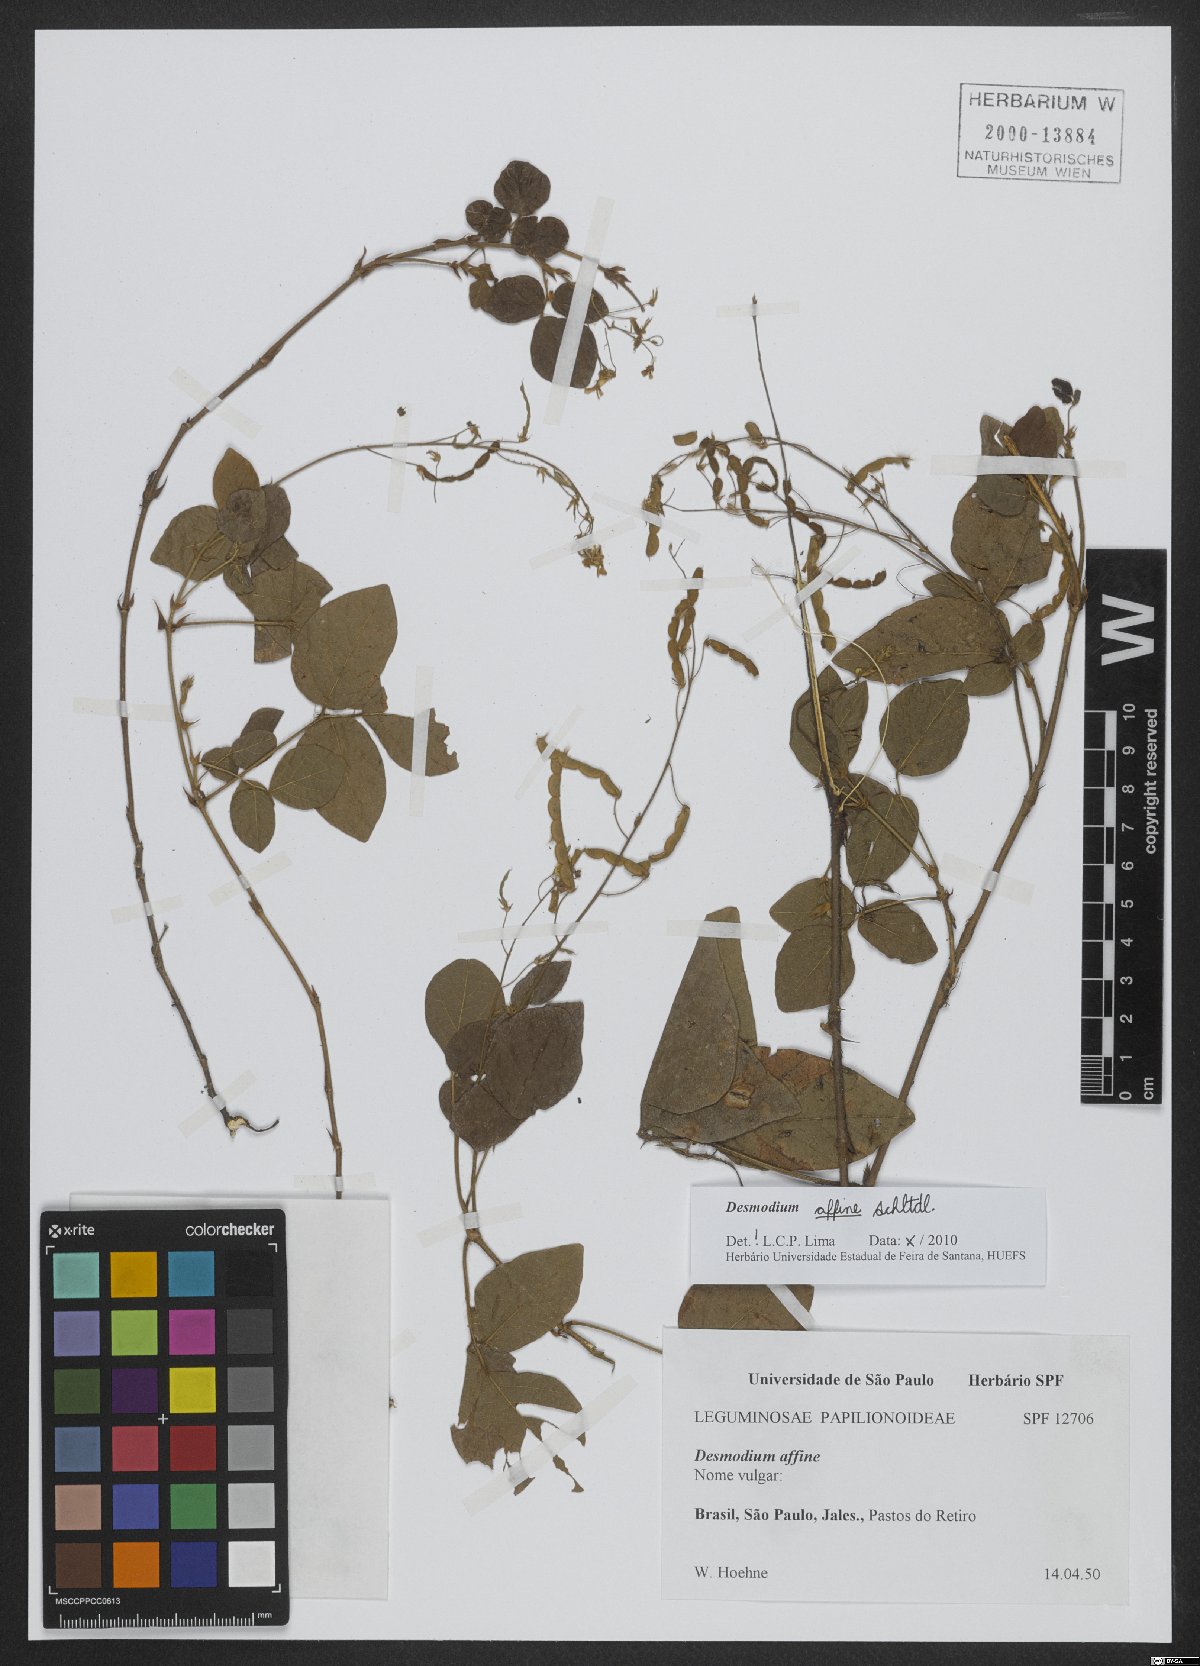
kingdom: Plantae
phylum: Tracheophyta
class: Magnoliopsida
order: Fabales
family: Fabaceae
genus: Desmodium
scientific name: Desmodium affine
